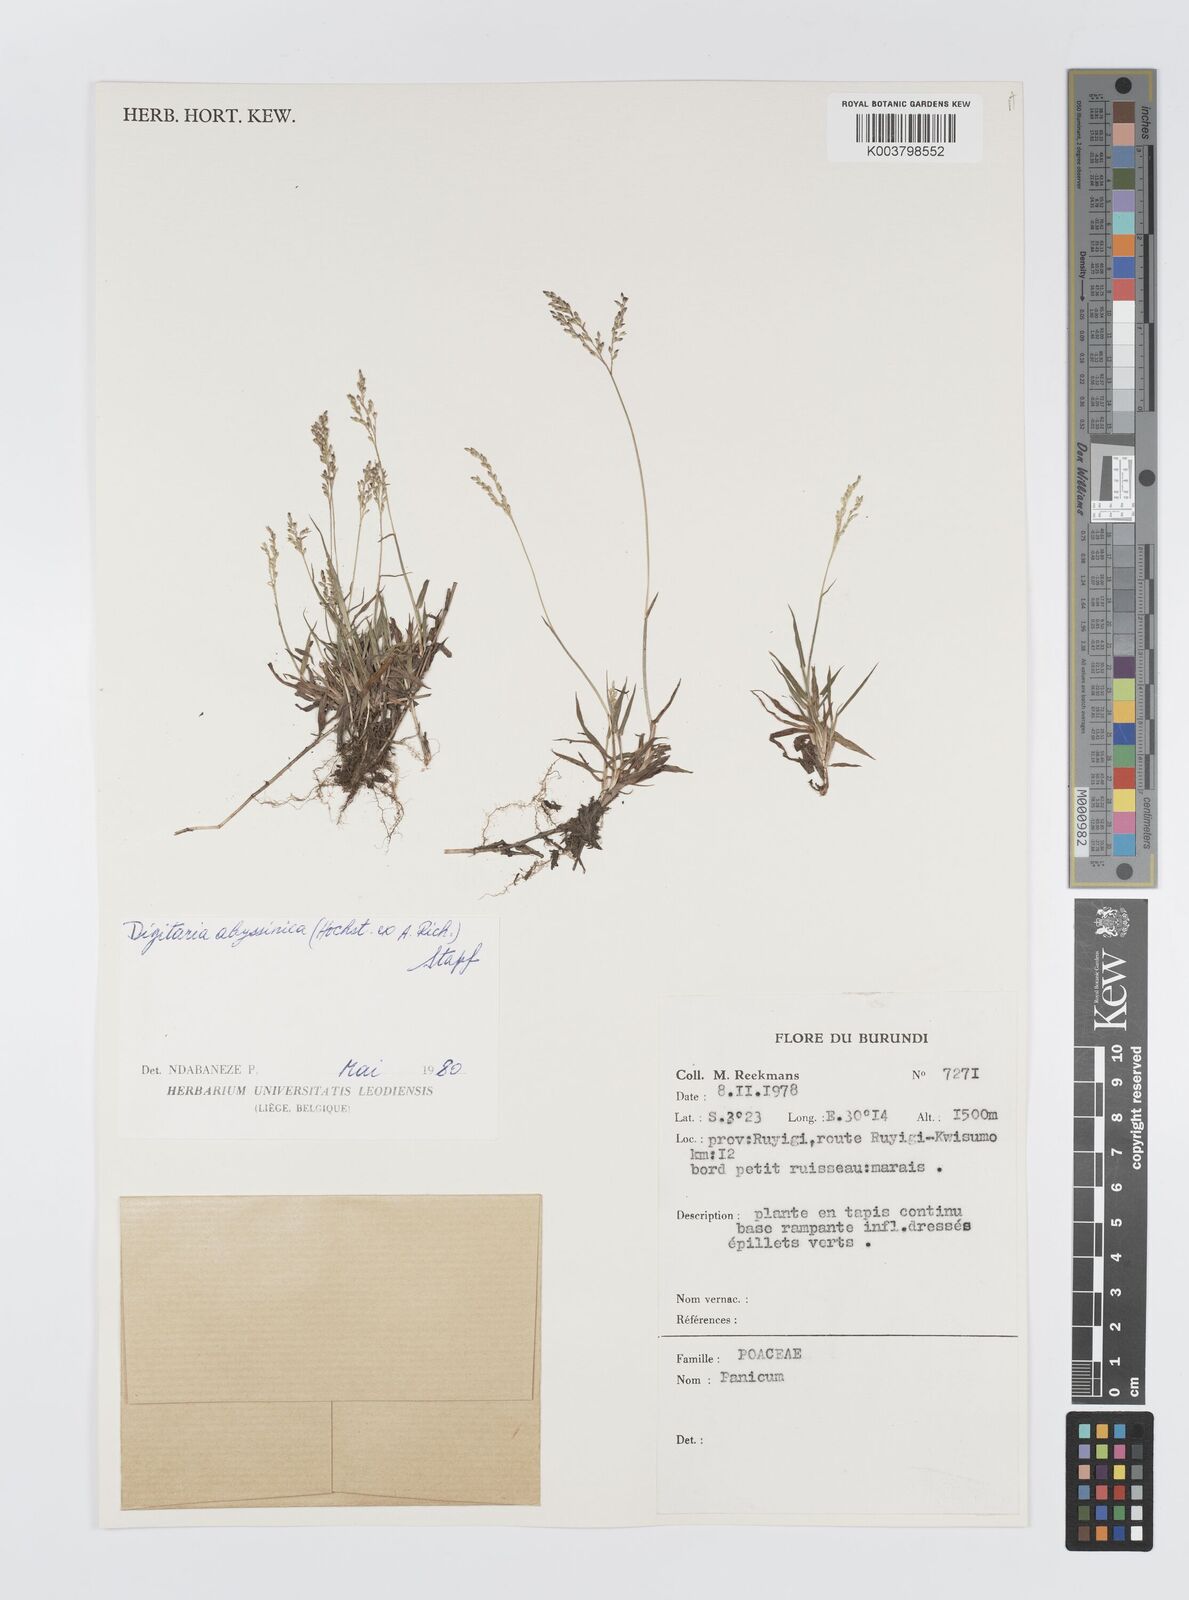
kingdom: Plantae
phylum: Tracheophyta
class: Liliopsida
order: Poales
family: Poaceae
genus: Digitaria
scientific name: Digitaria abyssinica
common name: African couchgrass
